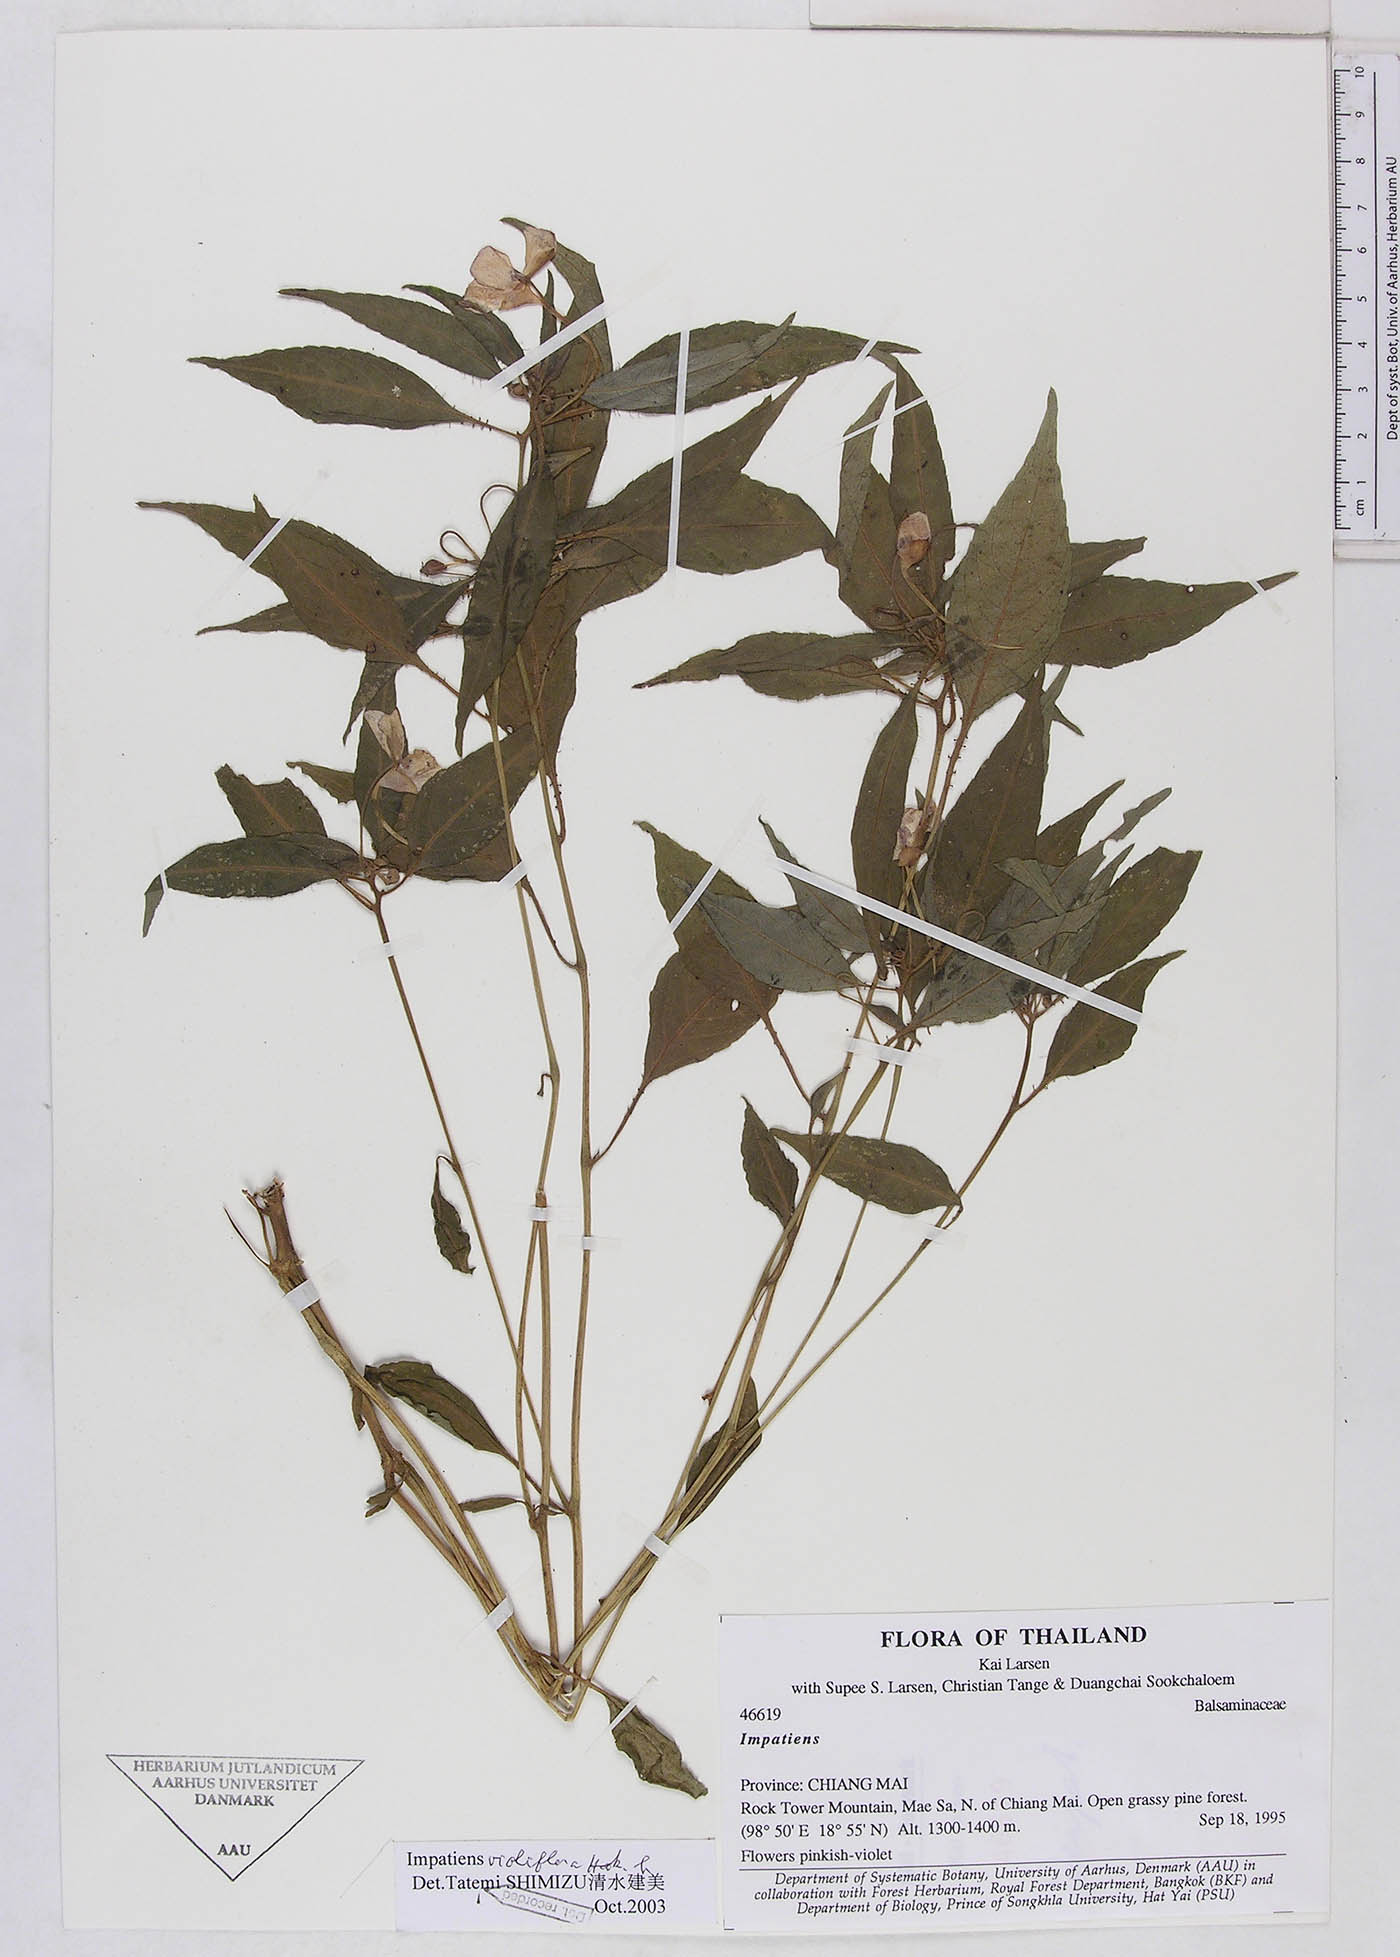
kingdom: Plantae
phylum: Tracheophyta
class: Magnoliopsida
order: Ericales
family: Balsaminaceae
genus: Impatiens
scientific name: Impatiens violiflora
